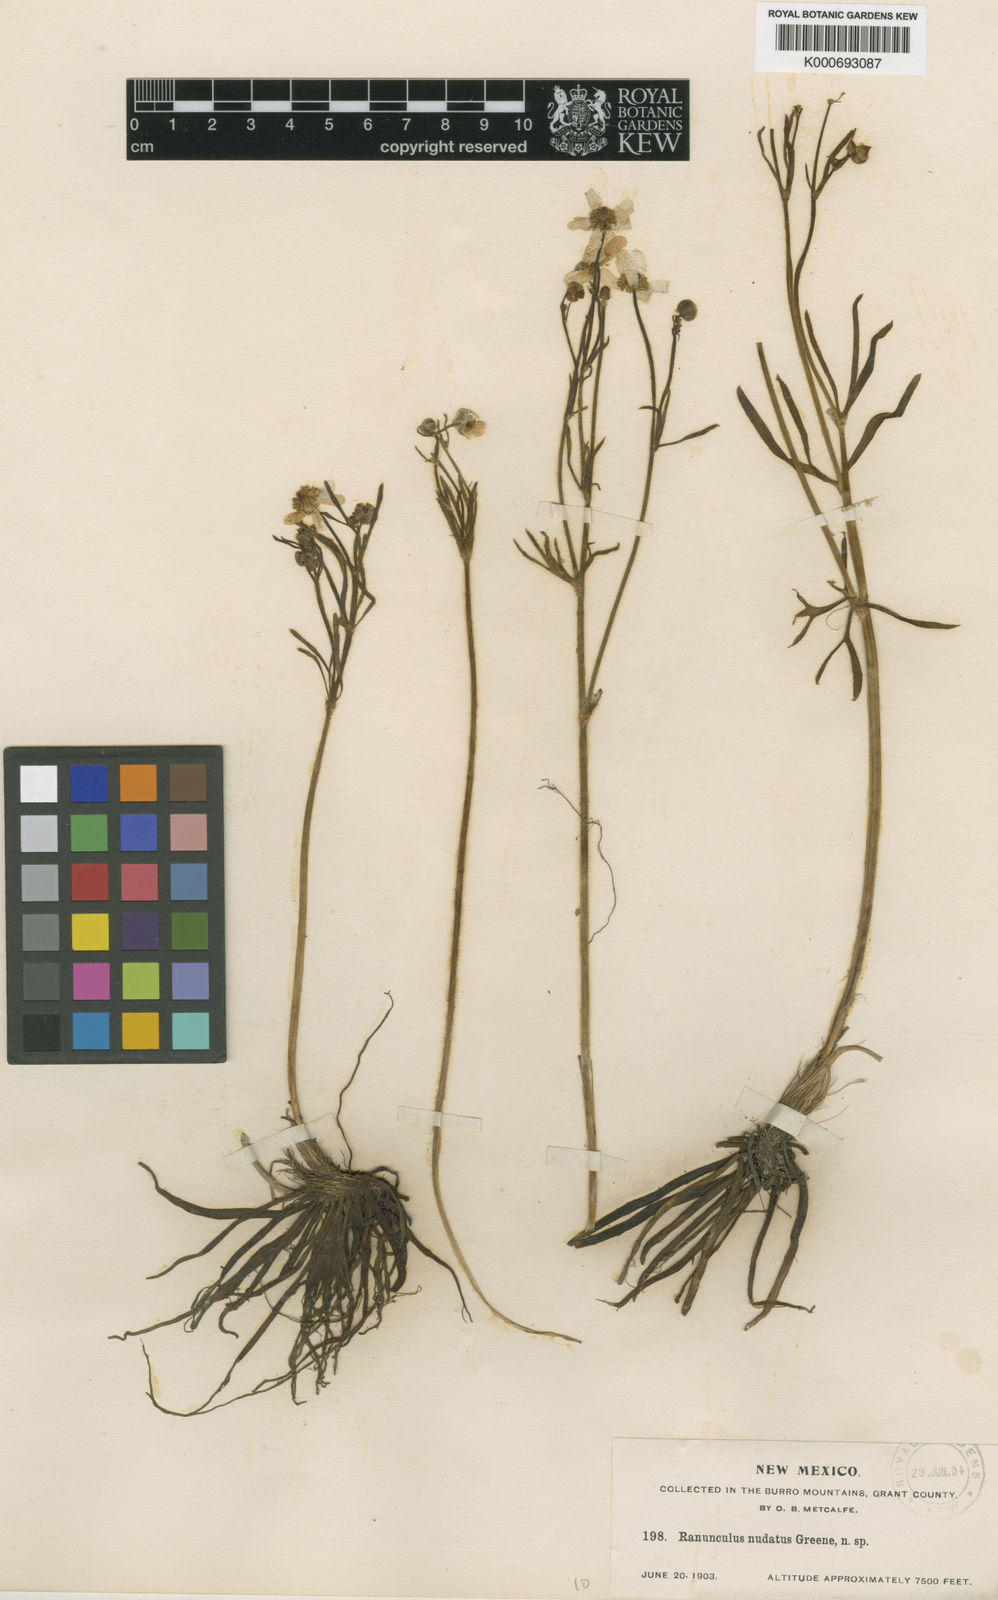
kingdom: Plantae
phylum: Tracheophyta
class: Magnoliopsida
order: Ranunculales
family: Ranunculaceae
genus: Ranunculus
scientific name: Ranunculus cardiophyllus
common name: Heart-leaved buttercup
